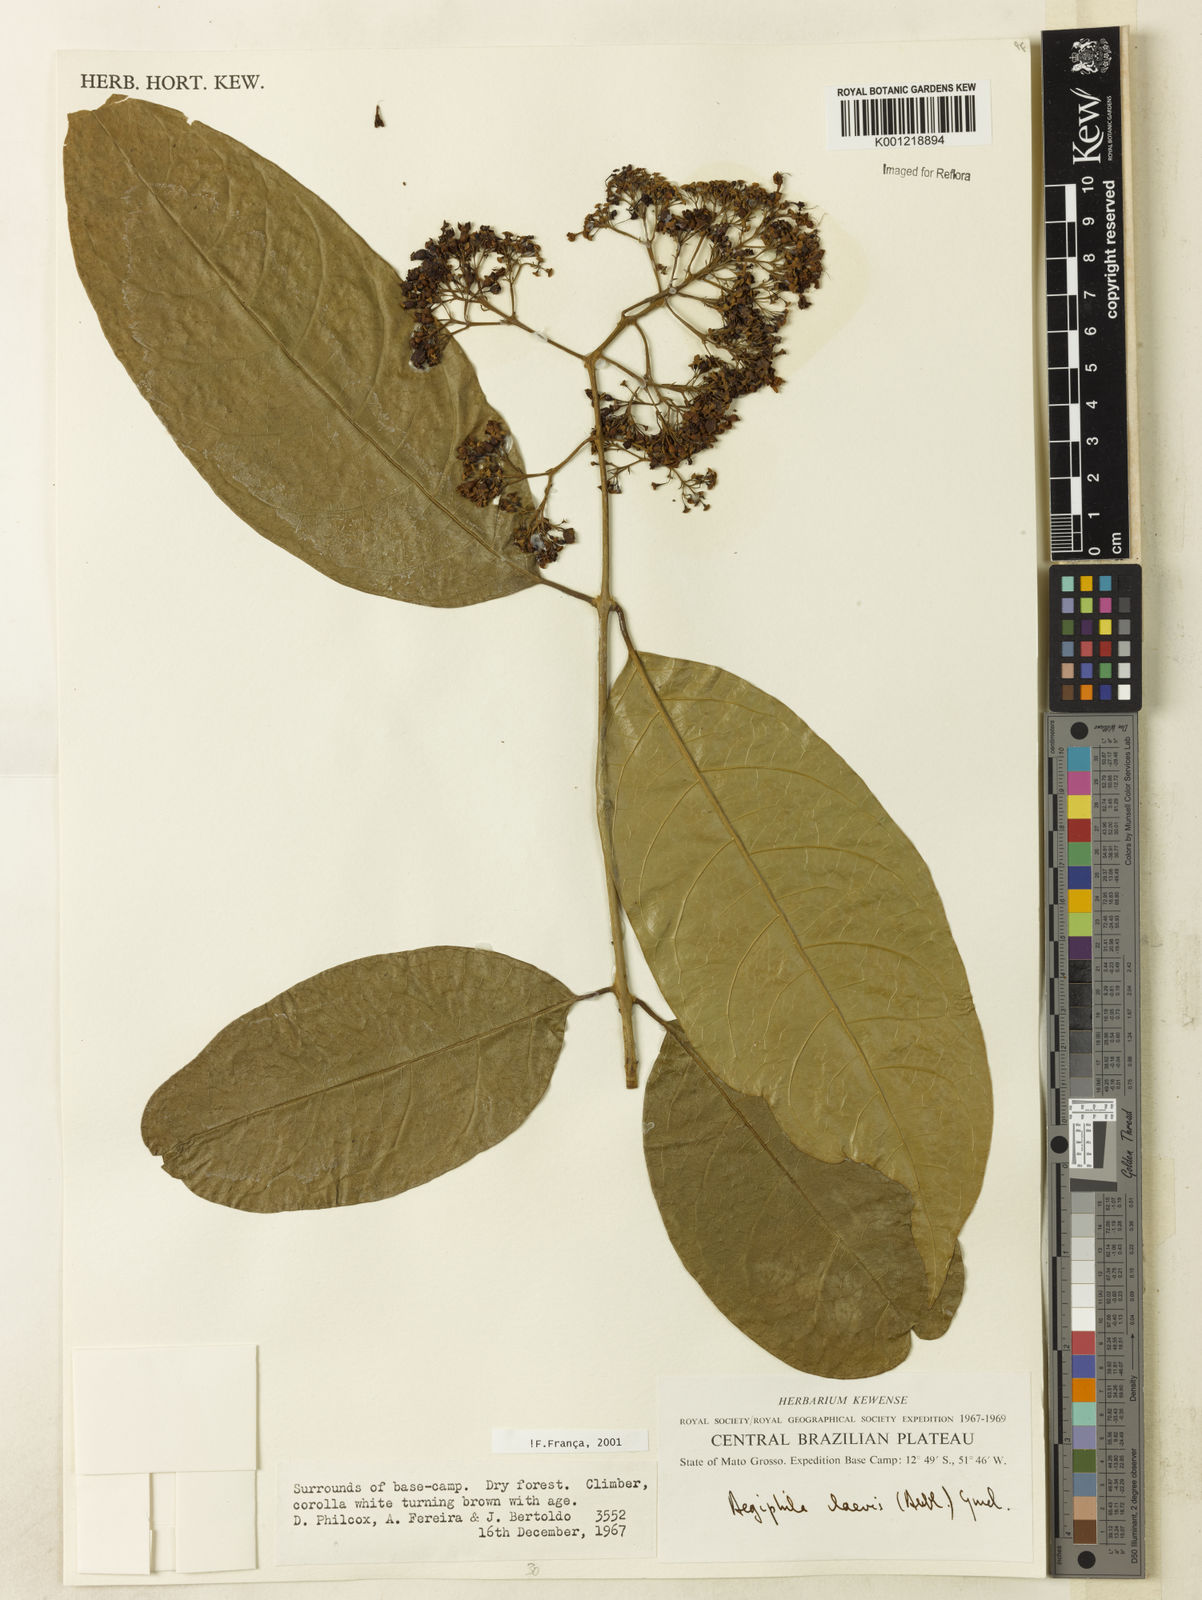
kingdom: Plantae
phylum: Tracheophyta
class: Magnoliopsida
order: Lamiales
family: Lamiaceae
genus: Aegiphila
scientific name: Aegiphila laevis
